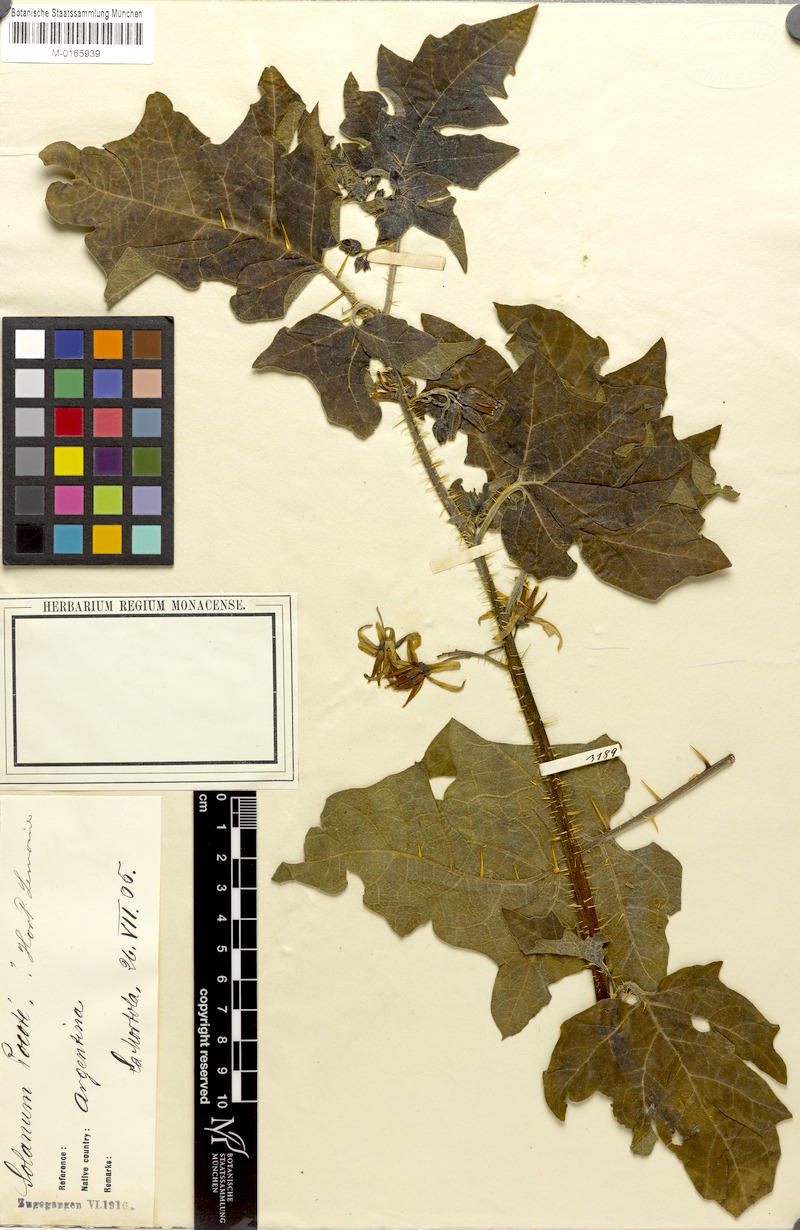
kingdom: Plantae
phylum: Tracheophyta
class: Magnoliopsida
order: Solanales
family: Solanaceae
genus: Solanum
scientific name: Solanum hieronymi
